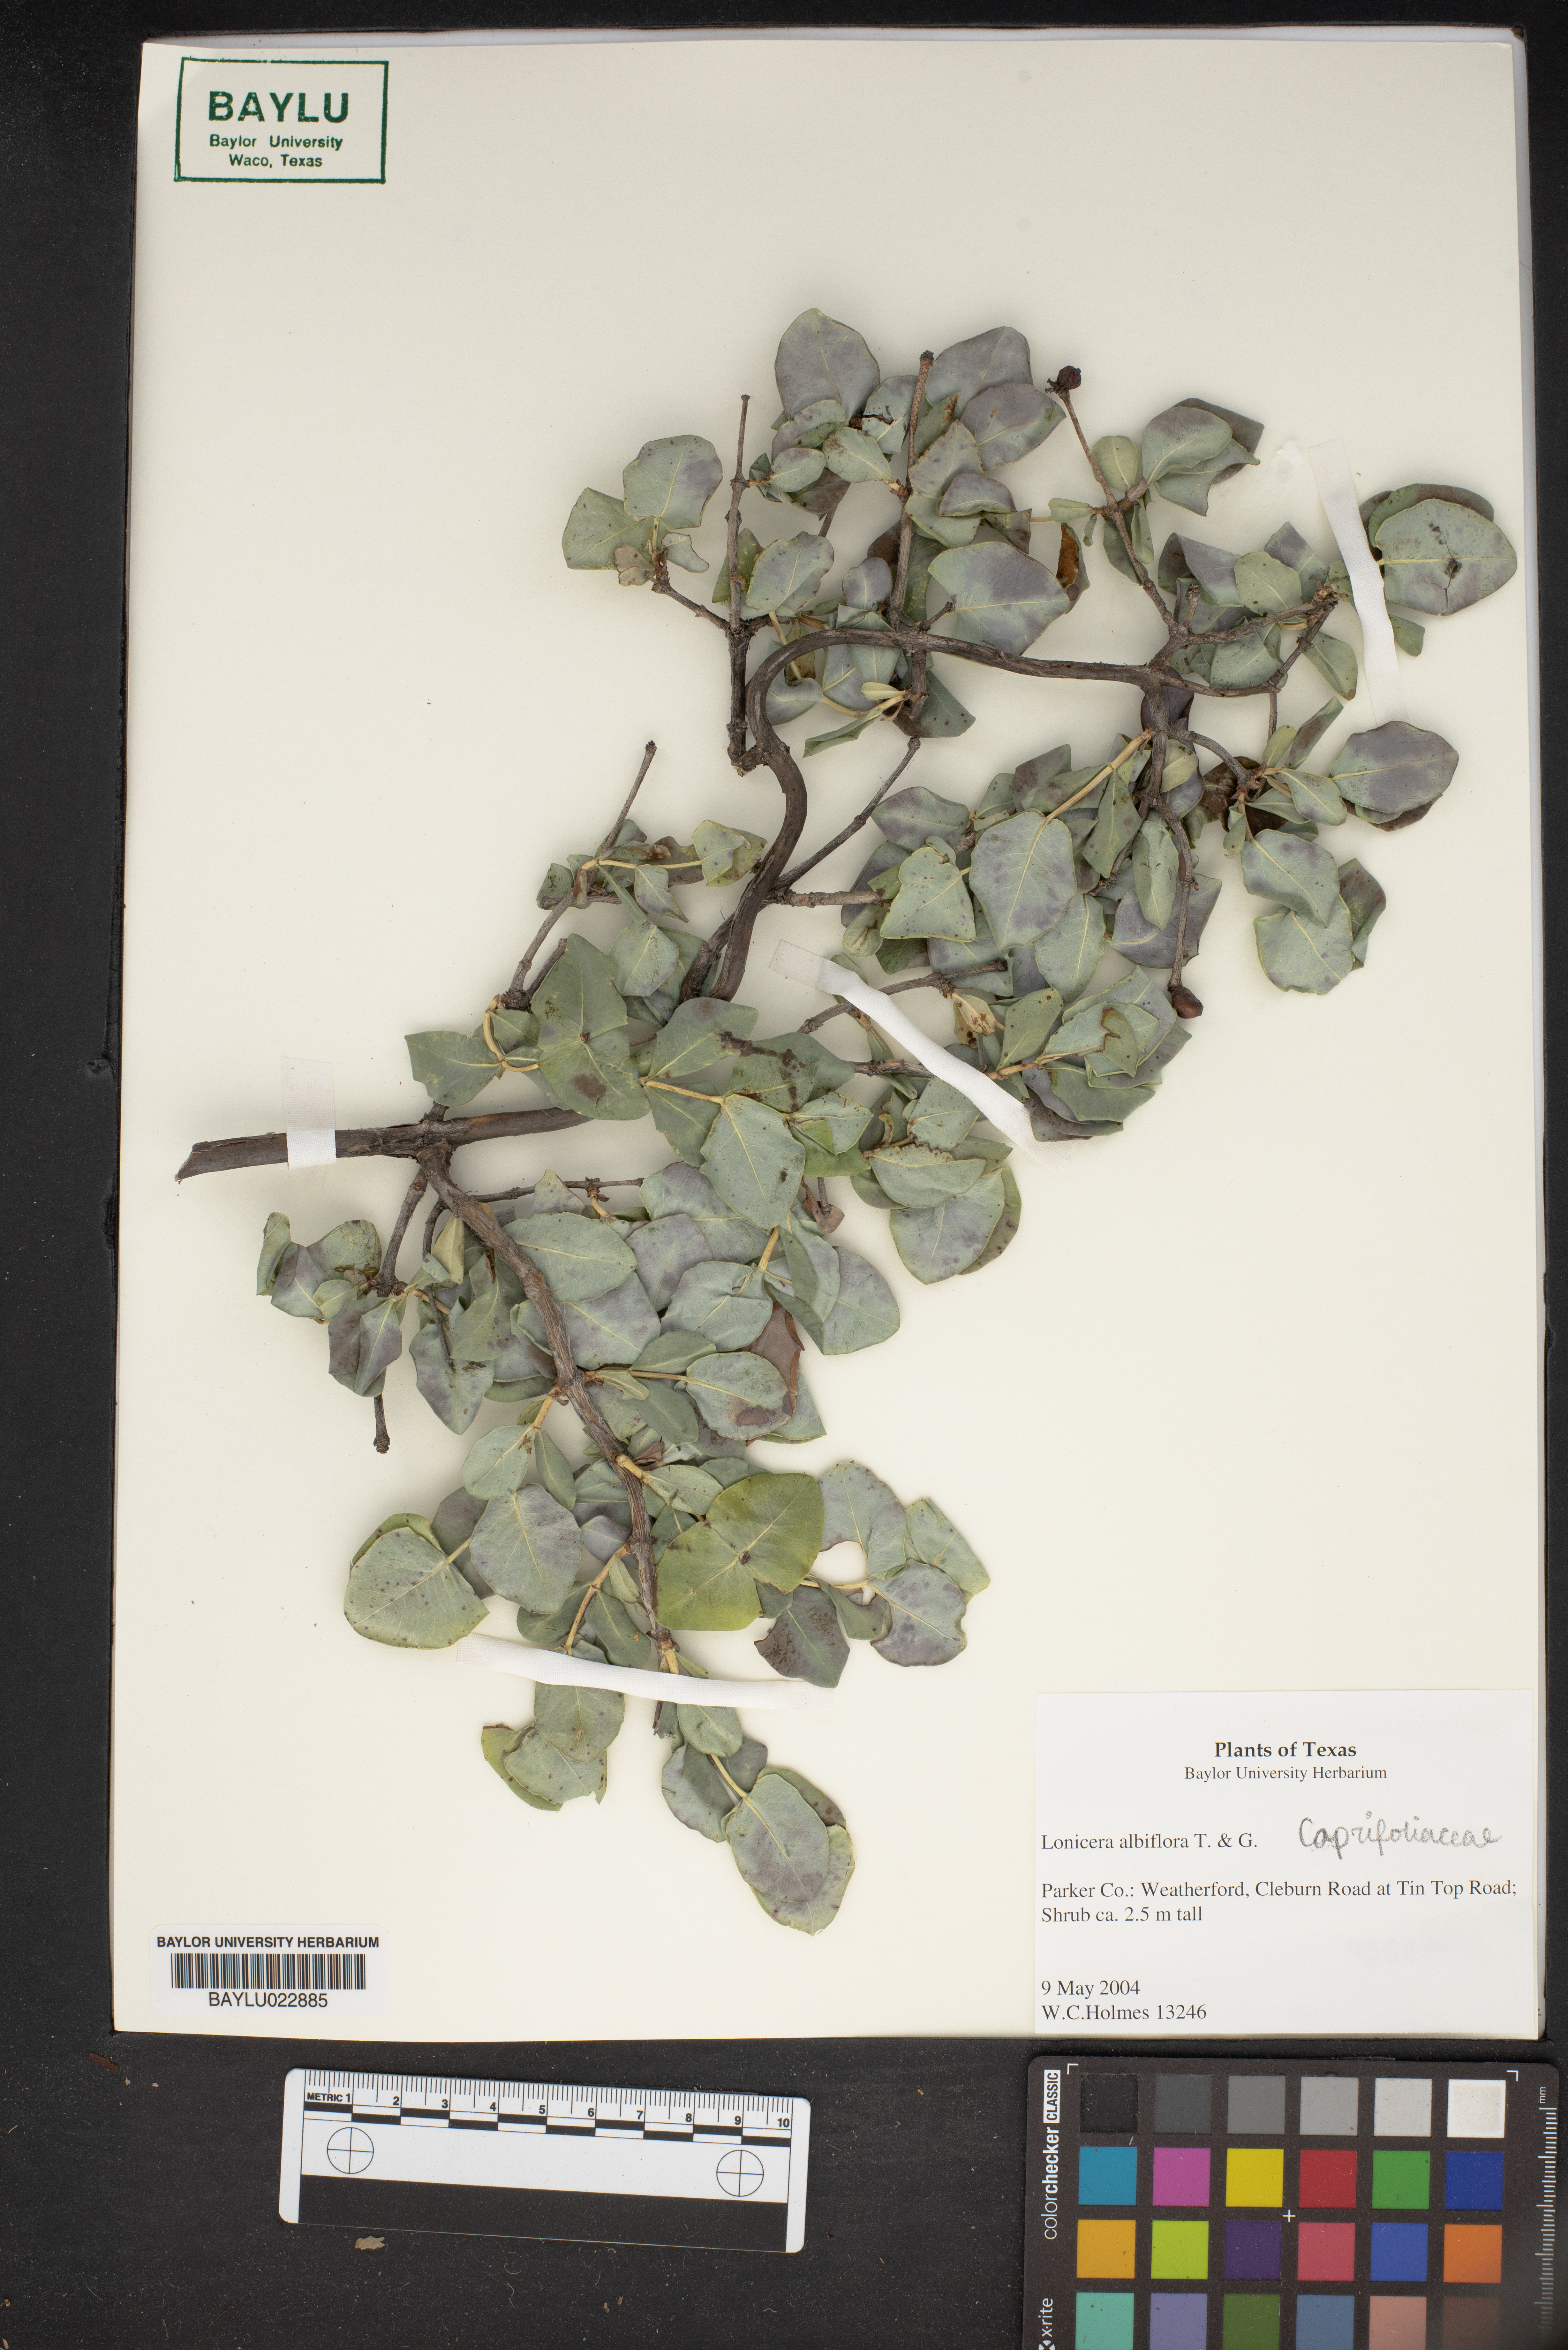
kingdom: Plantae
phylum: Tracheophyta
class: Magnoliopsida
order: Dipsacales
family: Caprifoliaceae
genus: Lonicera
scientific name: Lonicera albiflora
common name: White honeysuckle
